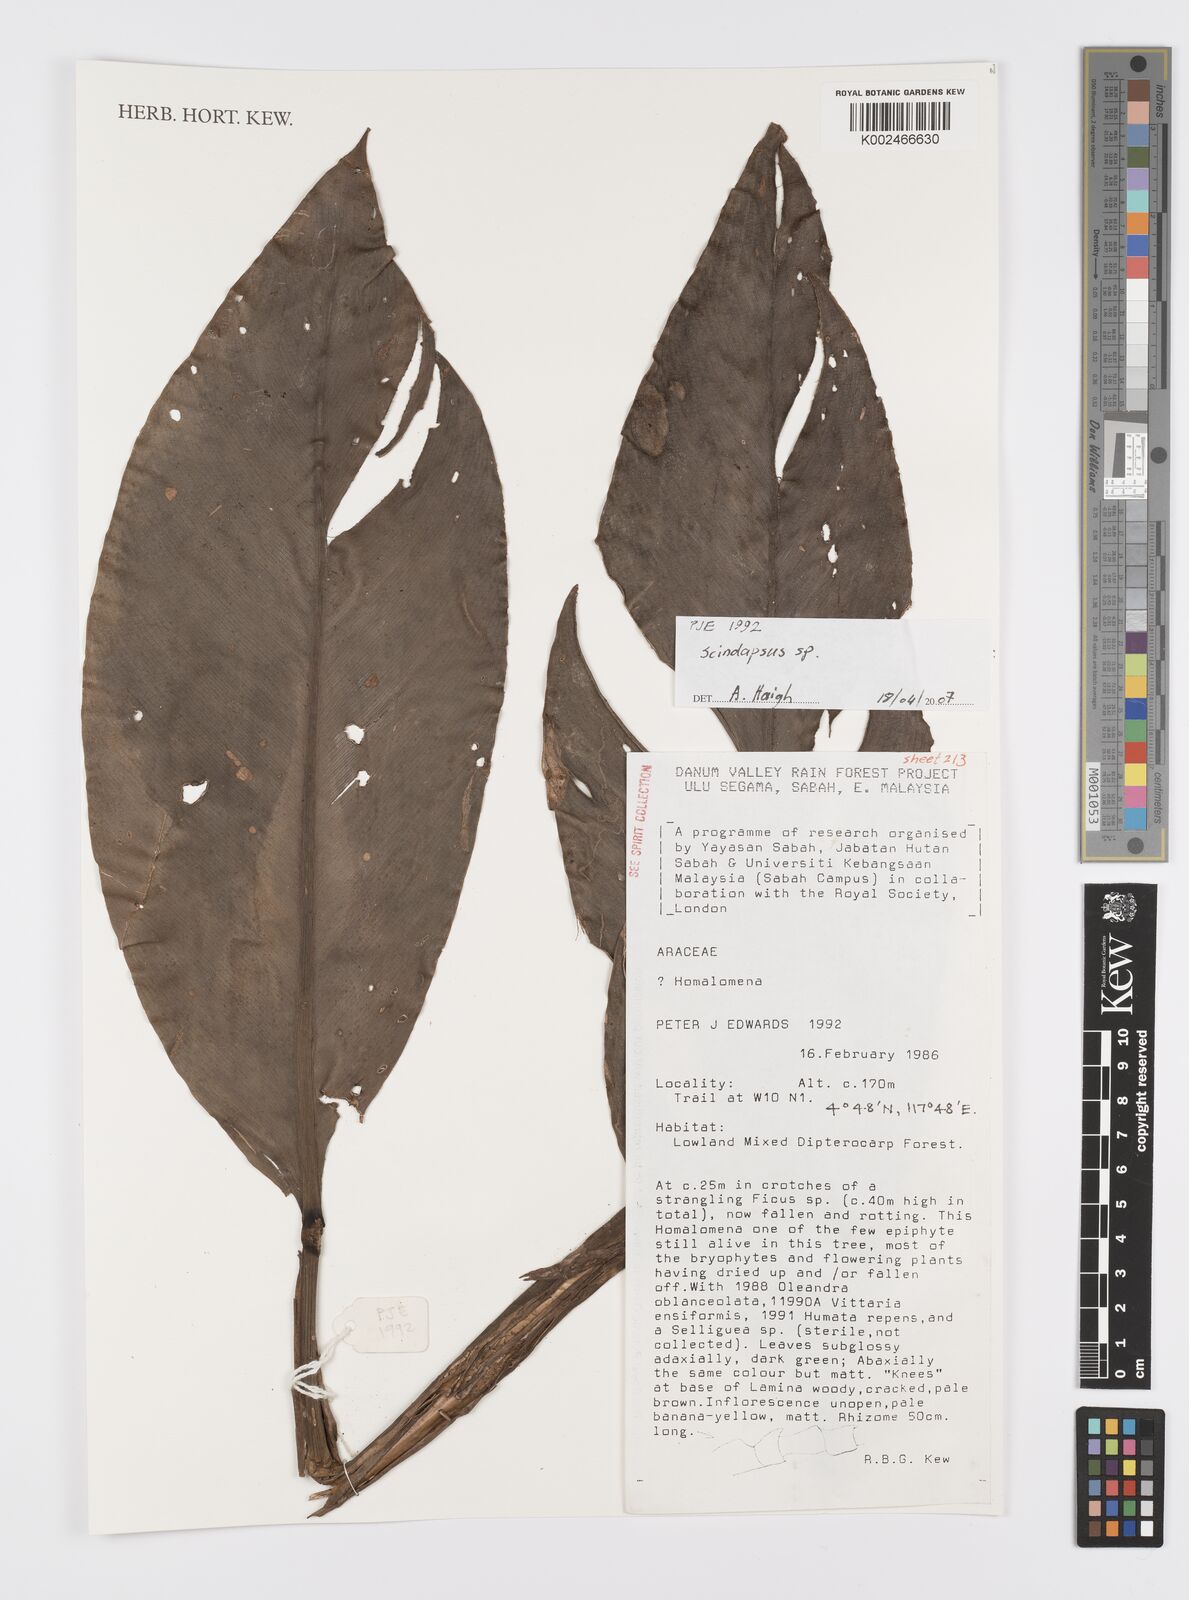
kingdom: Plantae
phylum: Tracheophyta
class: Liliopsida
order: Alismatales
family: Araceae
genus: Scindapsus
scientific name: Scindapsus
